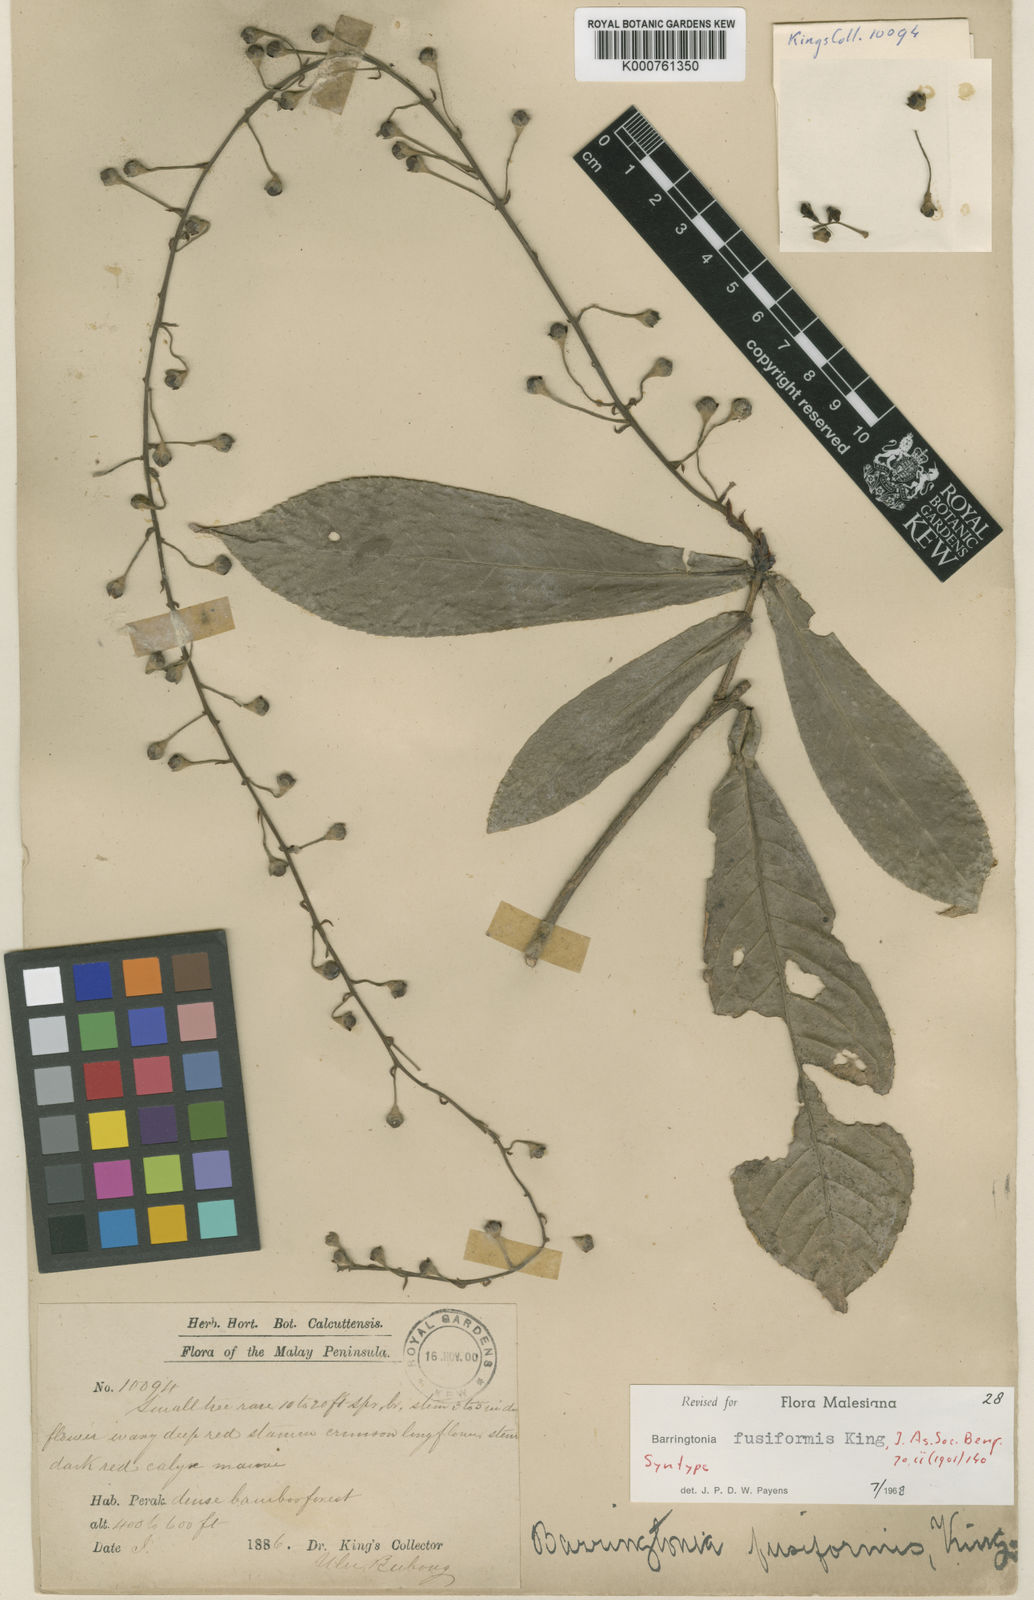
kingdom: Plantae
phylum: Tracheophyta
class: Magnoliopsida
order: Ericales
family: Lecythidaceae
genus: Barringtonia
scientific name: Barringtonia fusiformis
